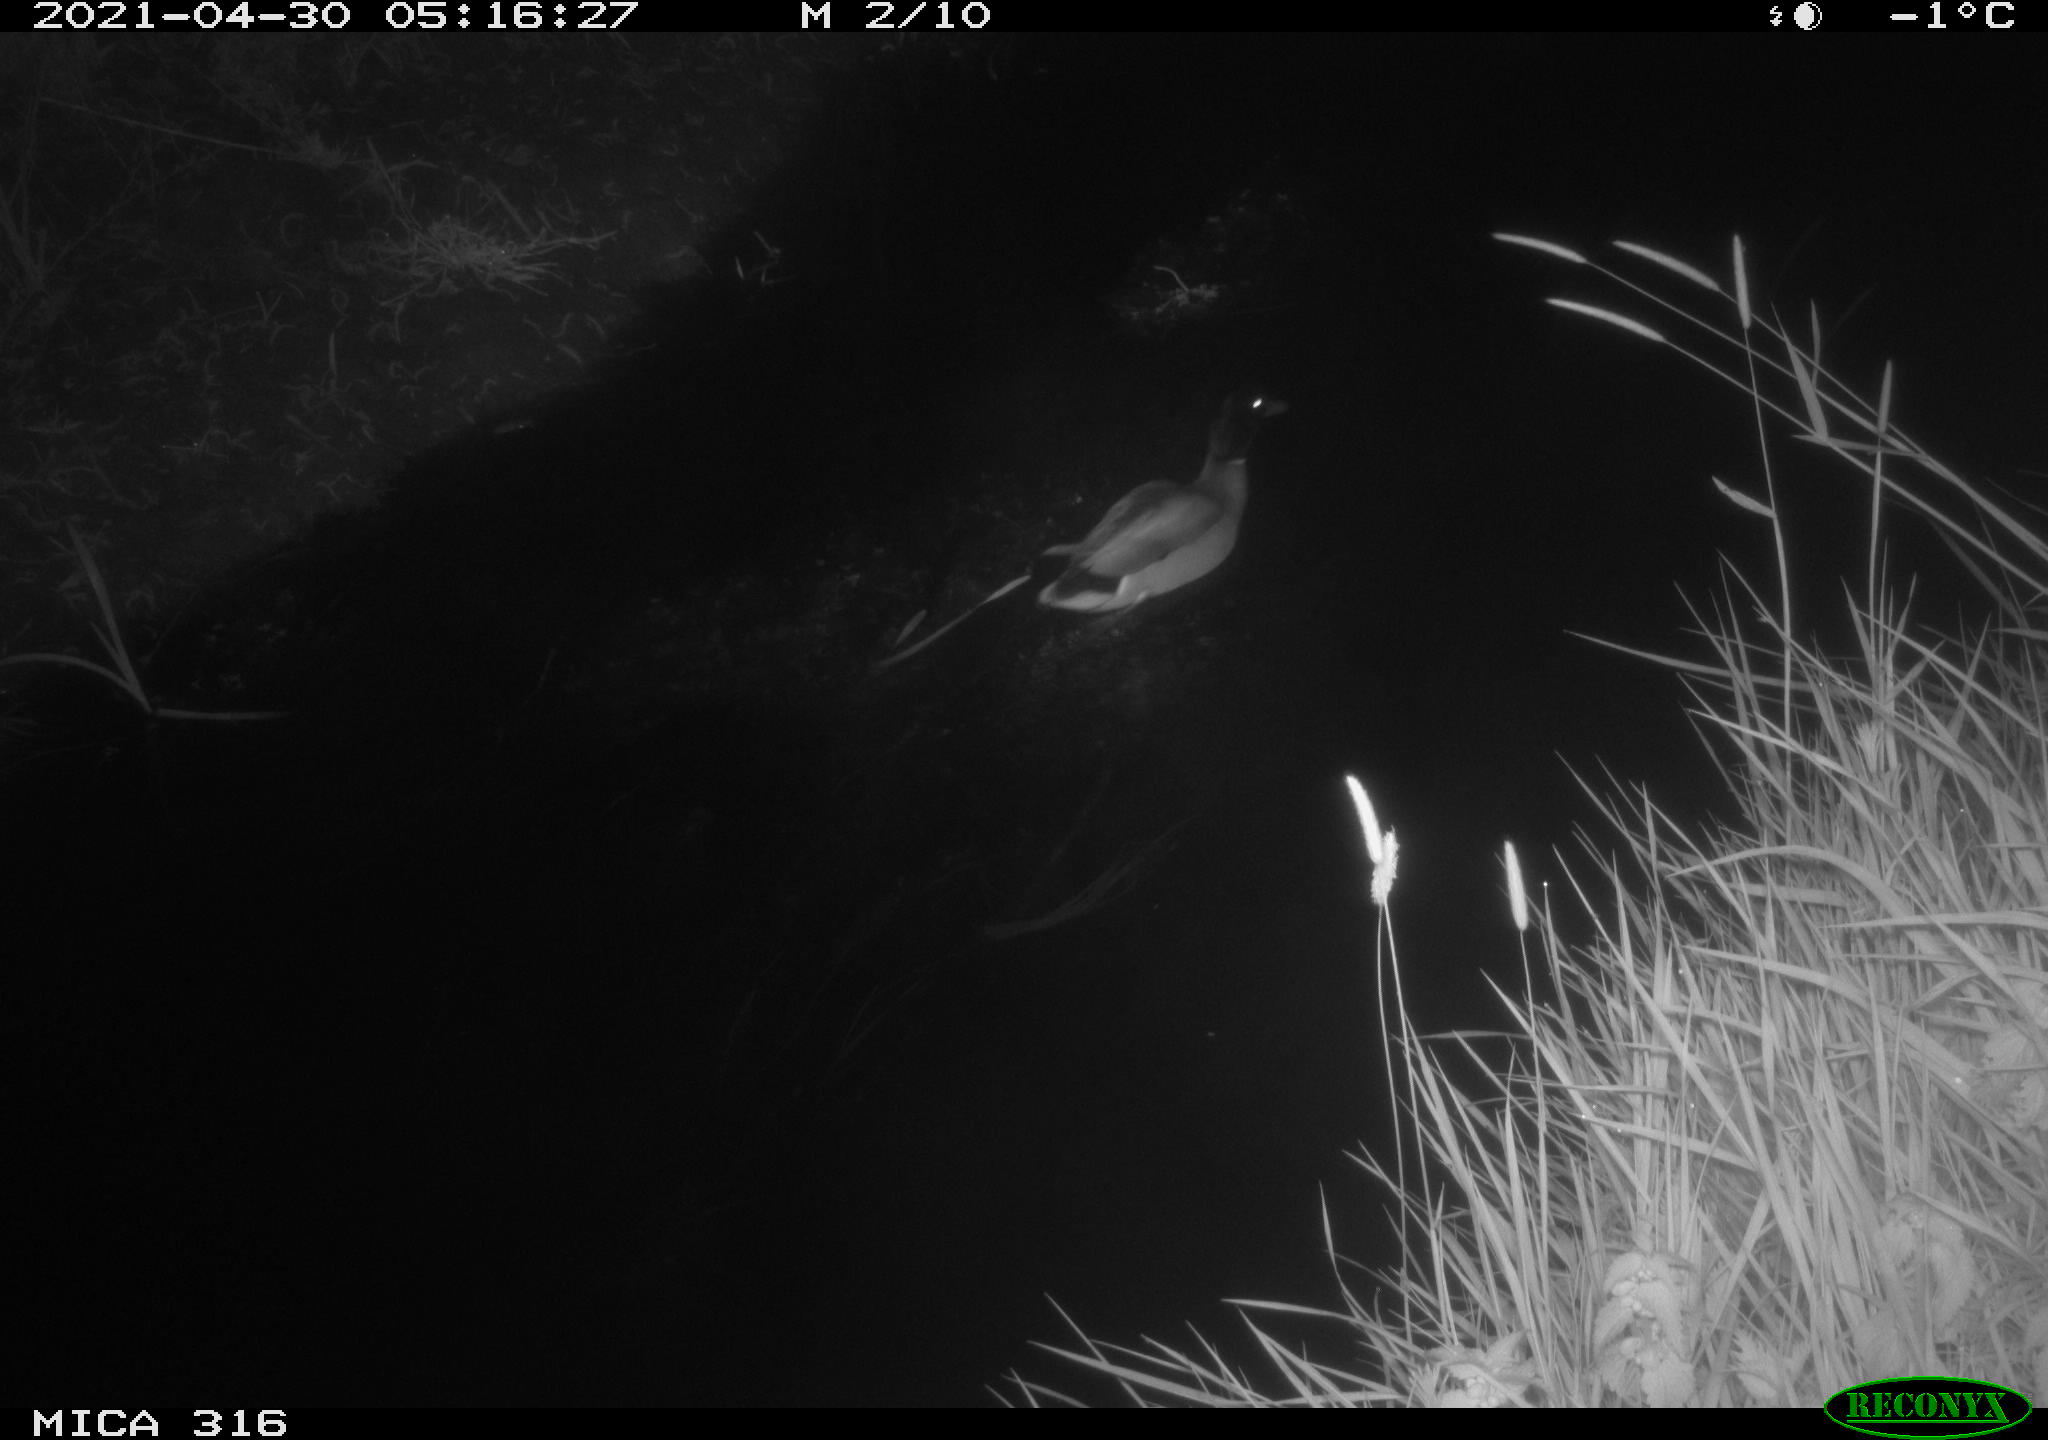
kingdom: Animalia
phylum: Chordata
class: Aves
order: Anseriformes
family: Anatidae
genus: Anas
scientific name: Anas platyrhynchos
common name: Mallard
